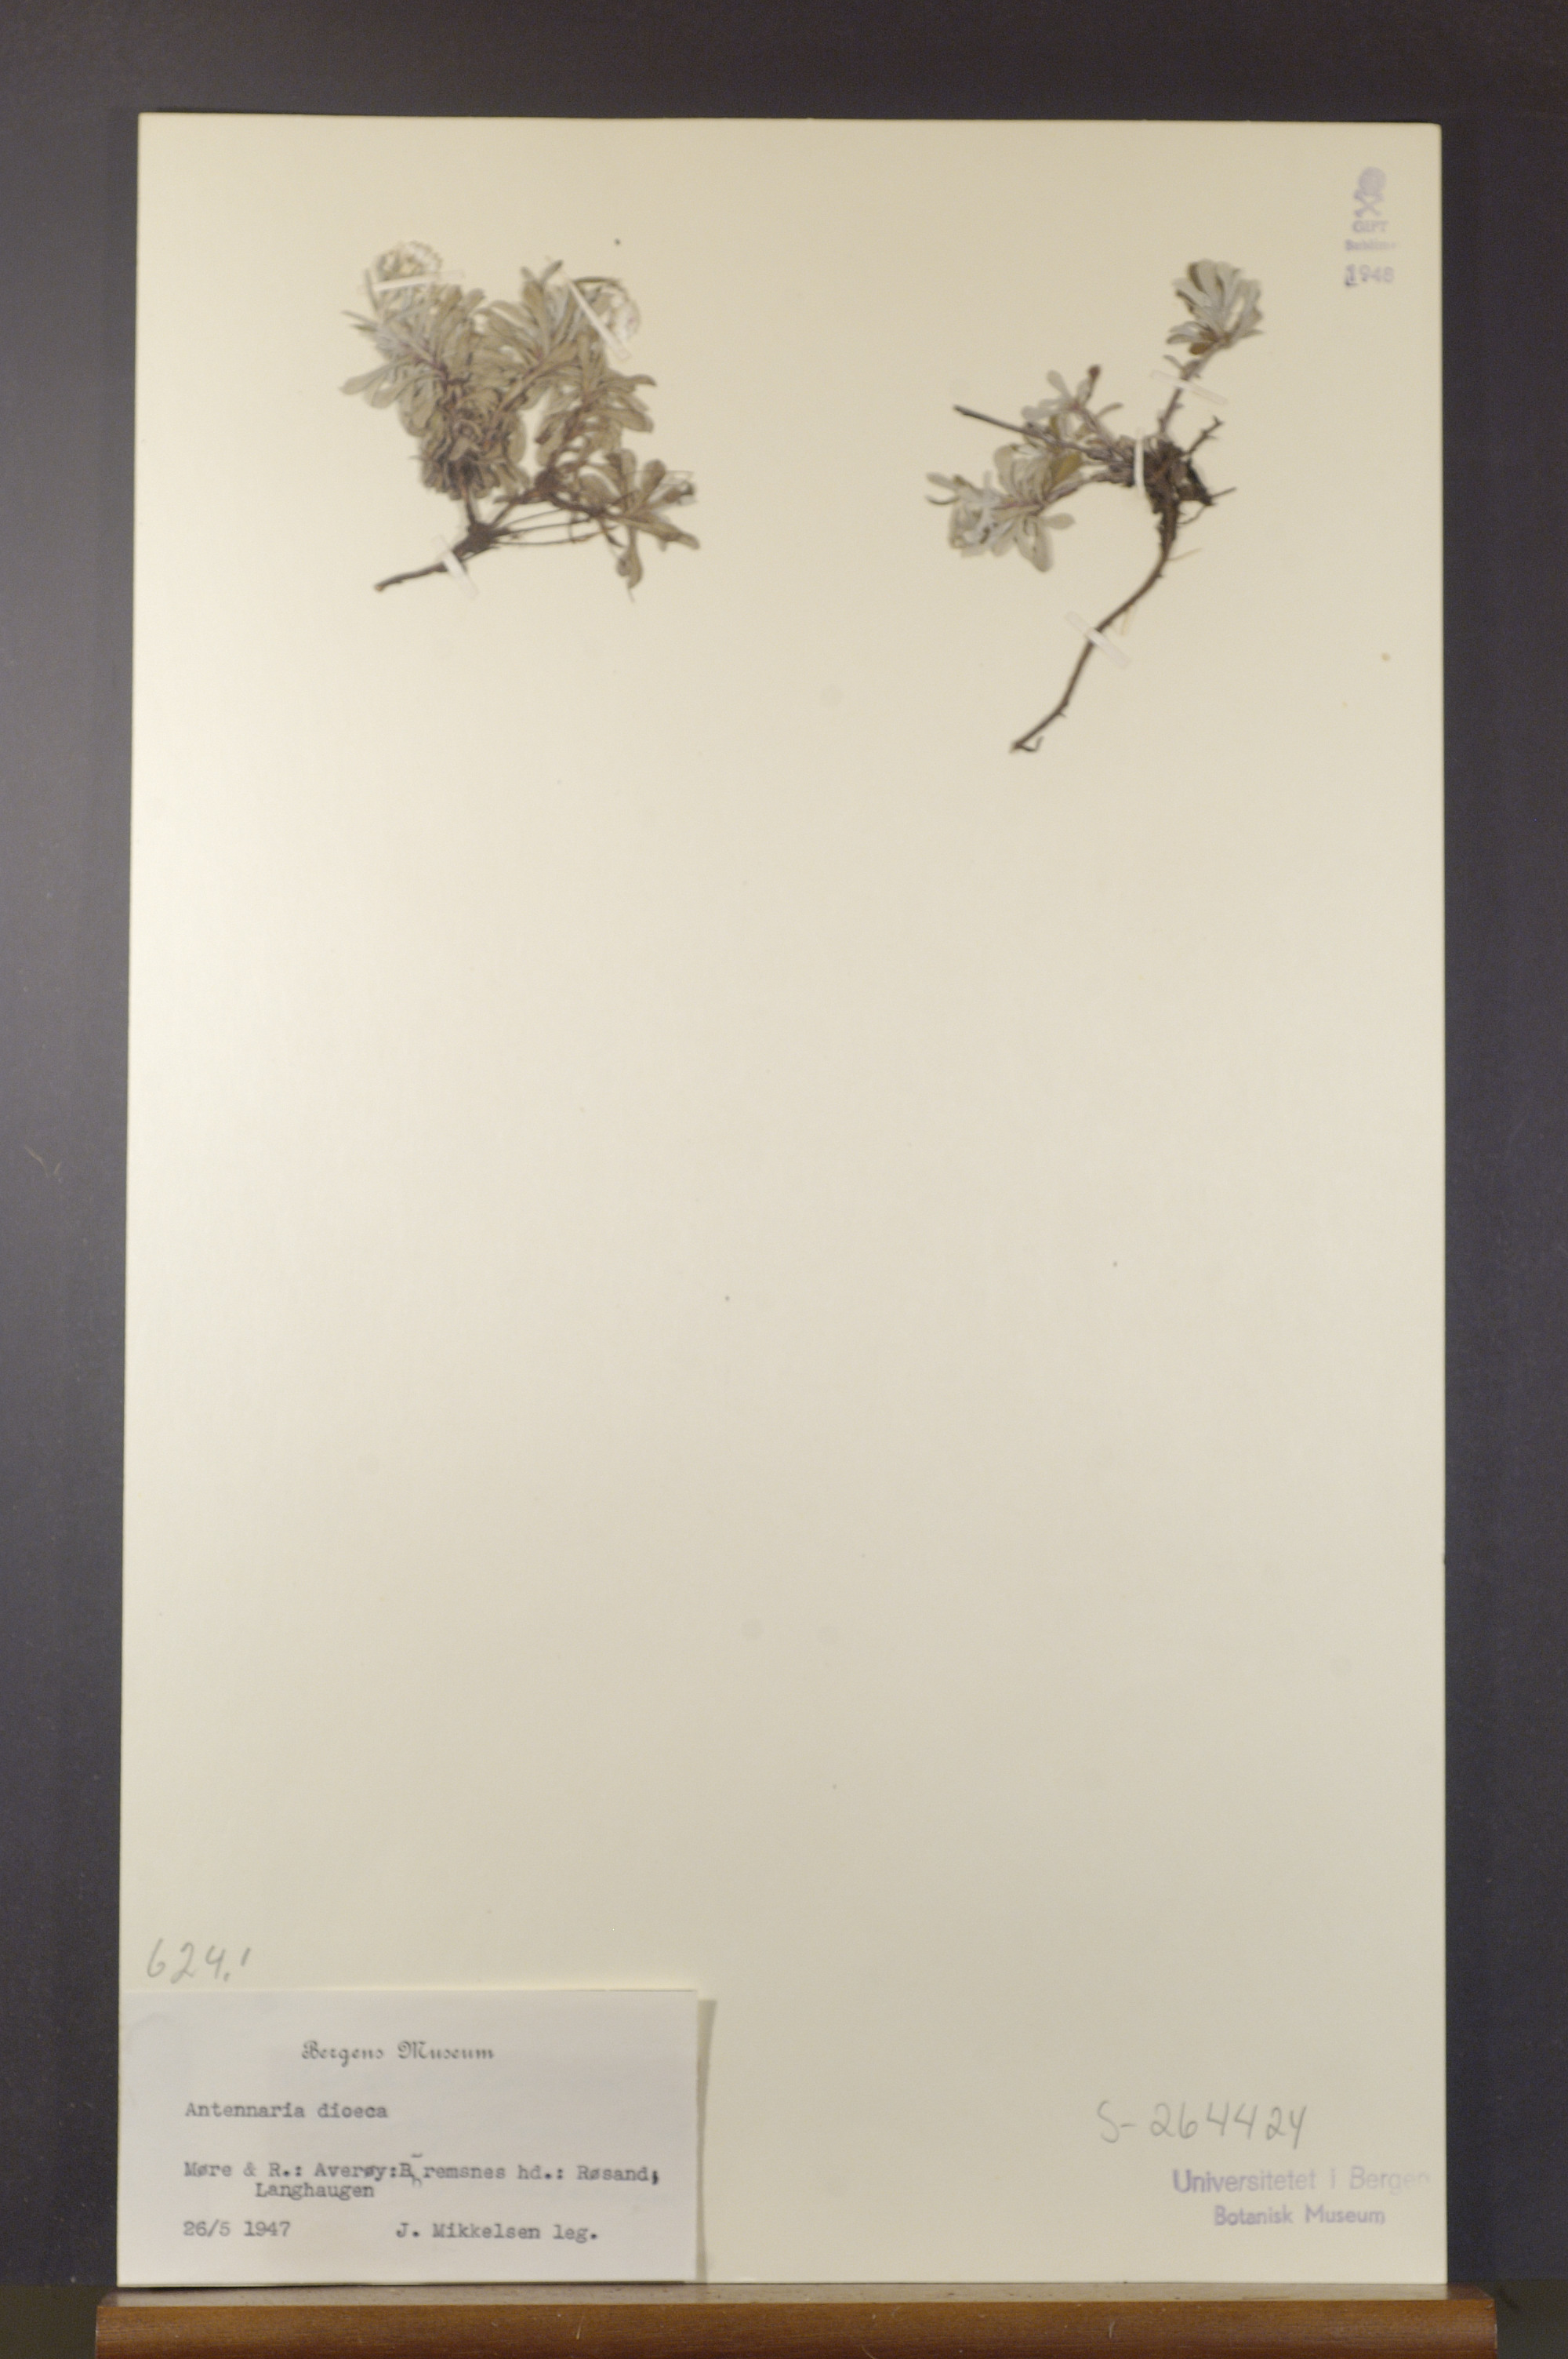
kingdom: Plantae
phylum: Tracheophyta
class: Magnoliopsida
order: Asterales
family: Asteraceae
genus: Antennaria
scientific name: Antennaria dioica
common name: Mountain everlasting
